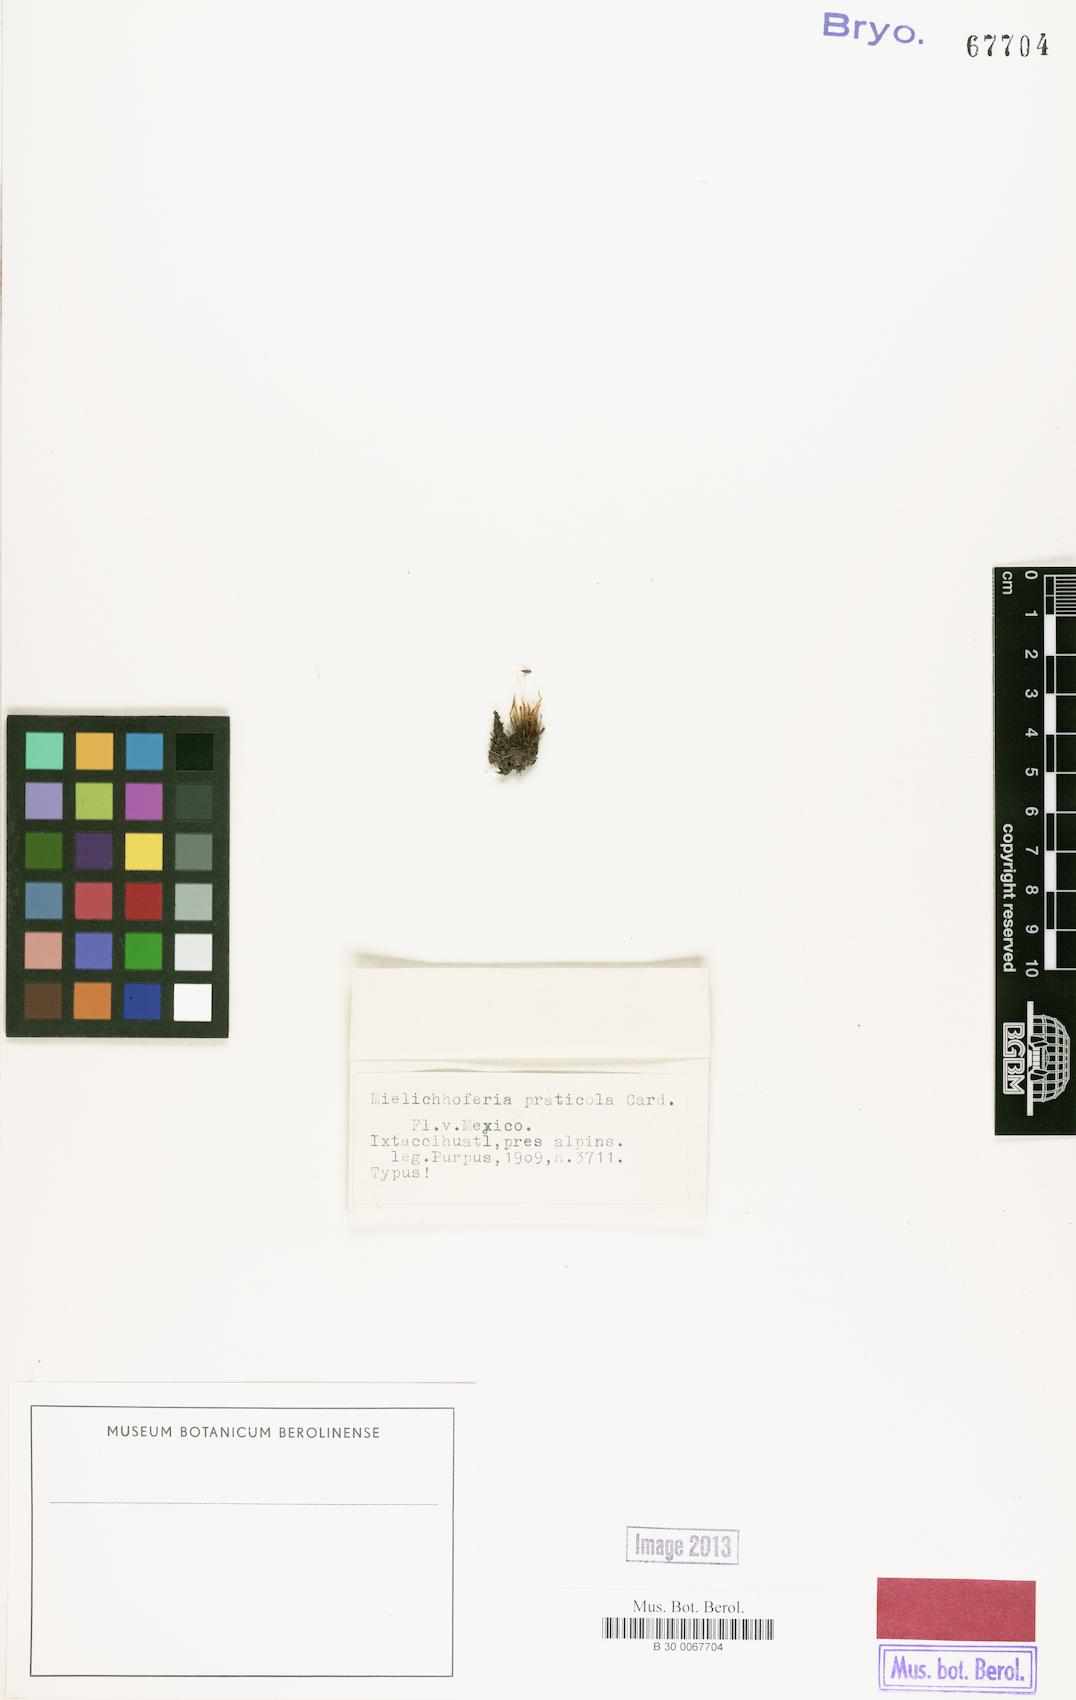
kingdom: Plantae
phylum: Bryophyta
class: Bryopsida
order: Bryales
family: Mniaceae
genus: Schizymenium
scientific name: Schizymenium campylocarpum
